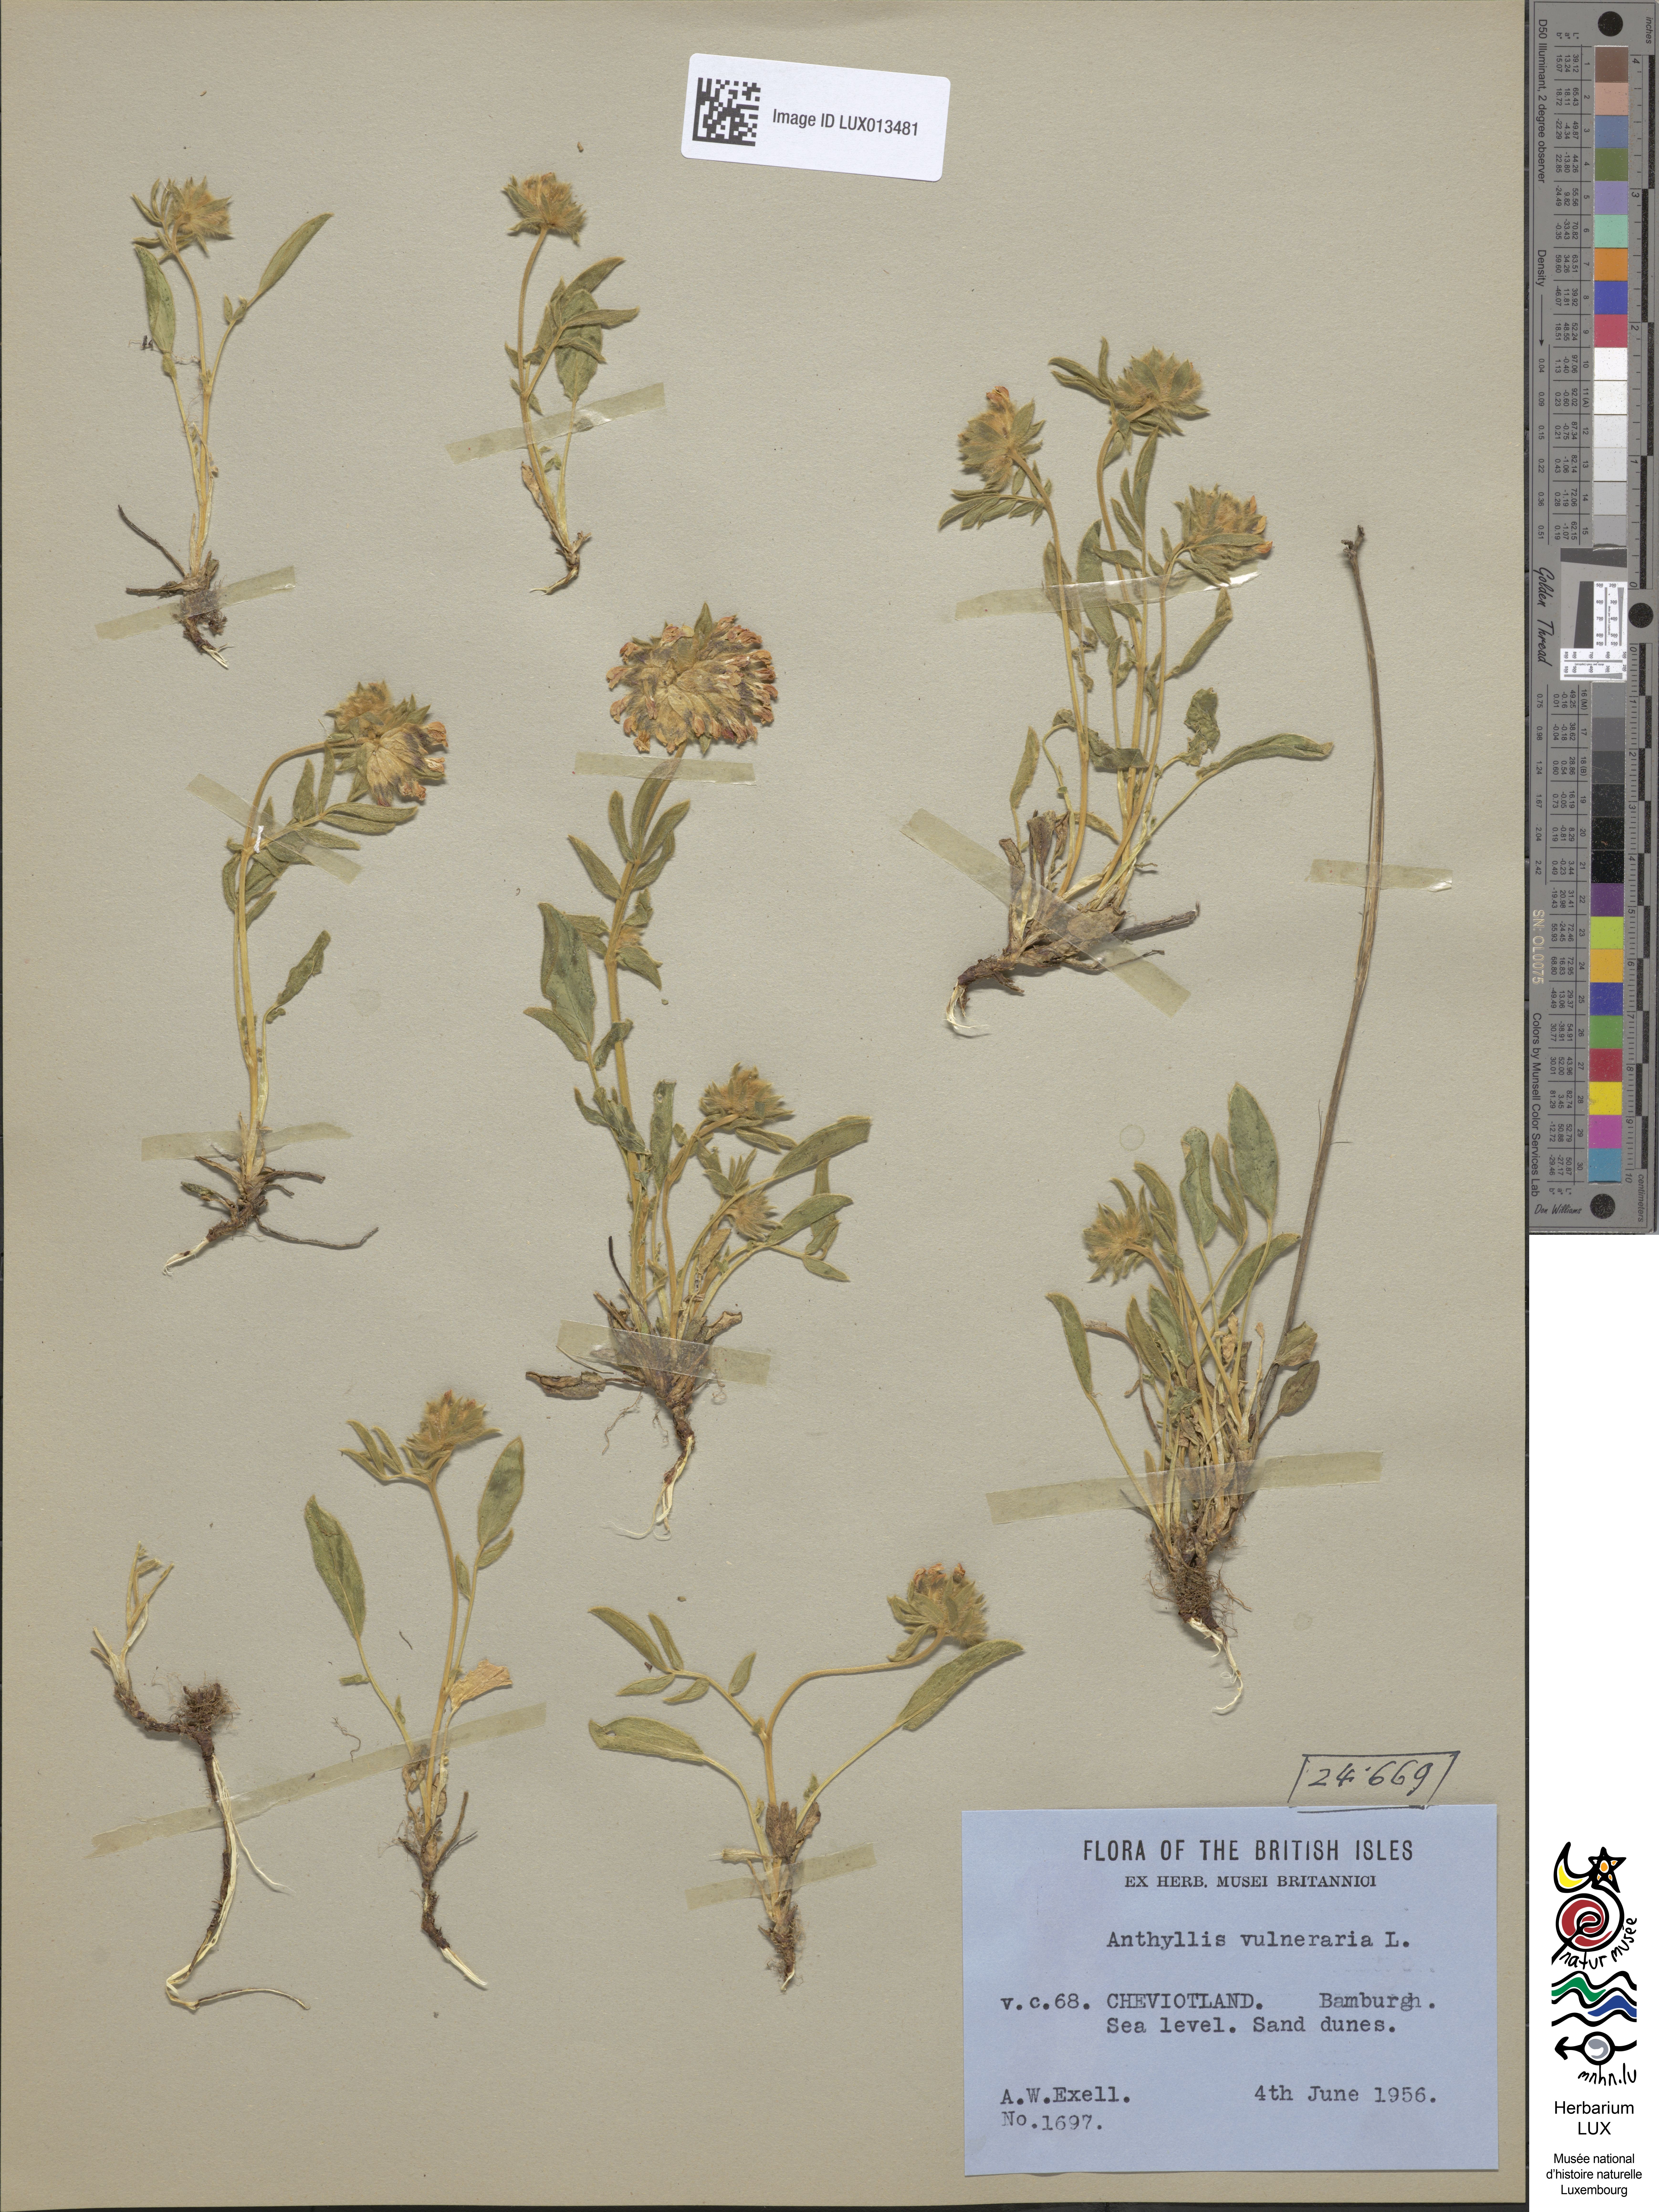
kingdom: Plantae
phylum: Tracheophyta
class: Magnoliopsida
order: Fabales
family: Fabaceae
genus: Anthyllis
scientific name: Anthyllis vulneraria
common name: Kidney vetch
